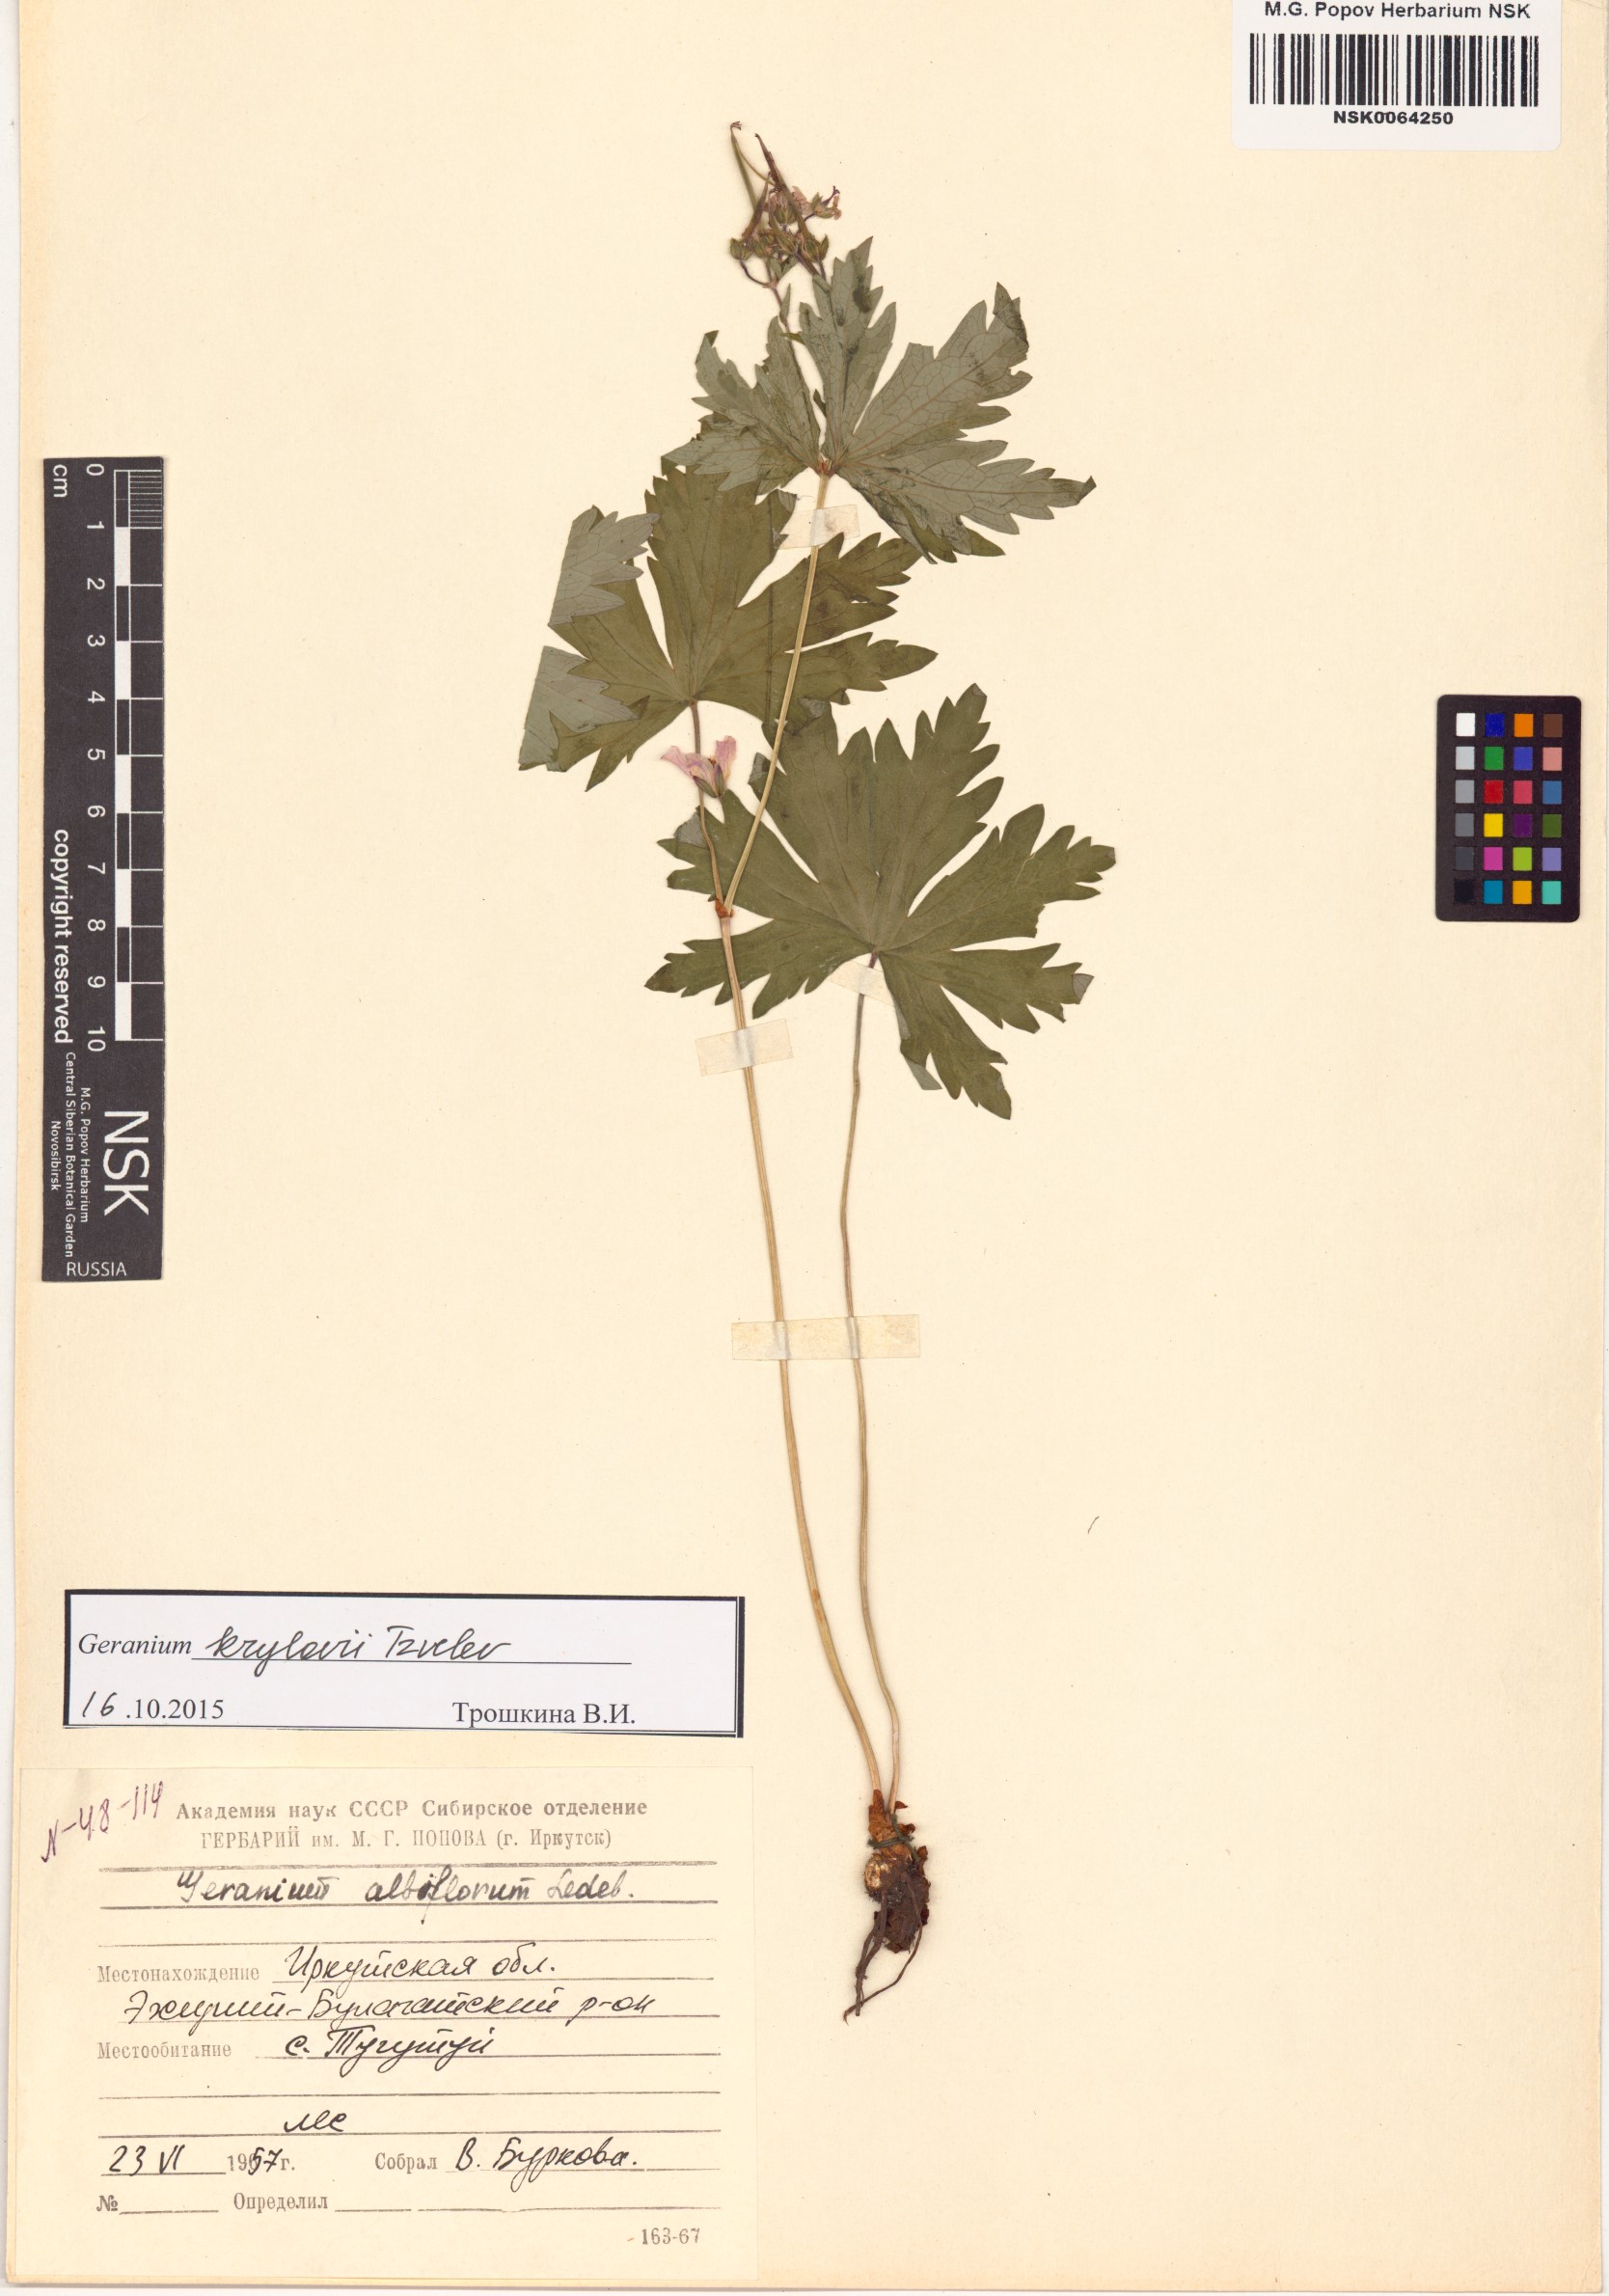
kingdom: Plantae
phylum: Tracheophyta
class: Magnoliopsida
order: Geraniales
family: Geraniaceae
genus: Geranium
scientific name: Geranium sylvaticum
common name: Wood crane's-bill
